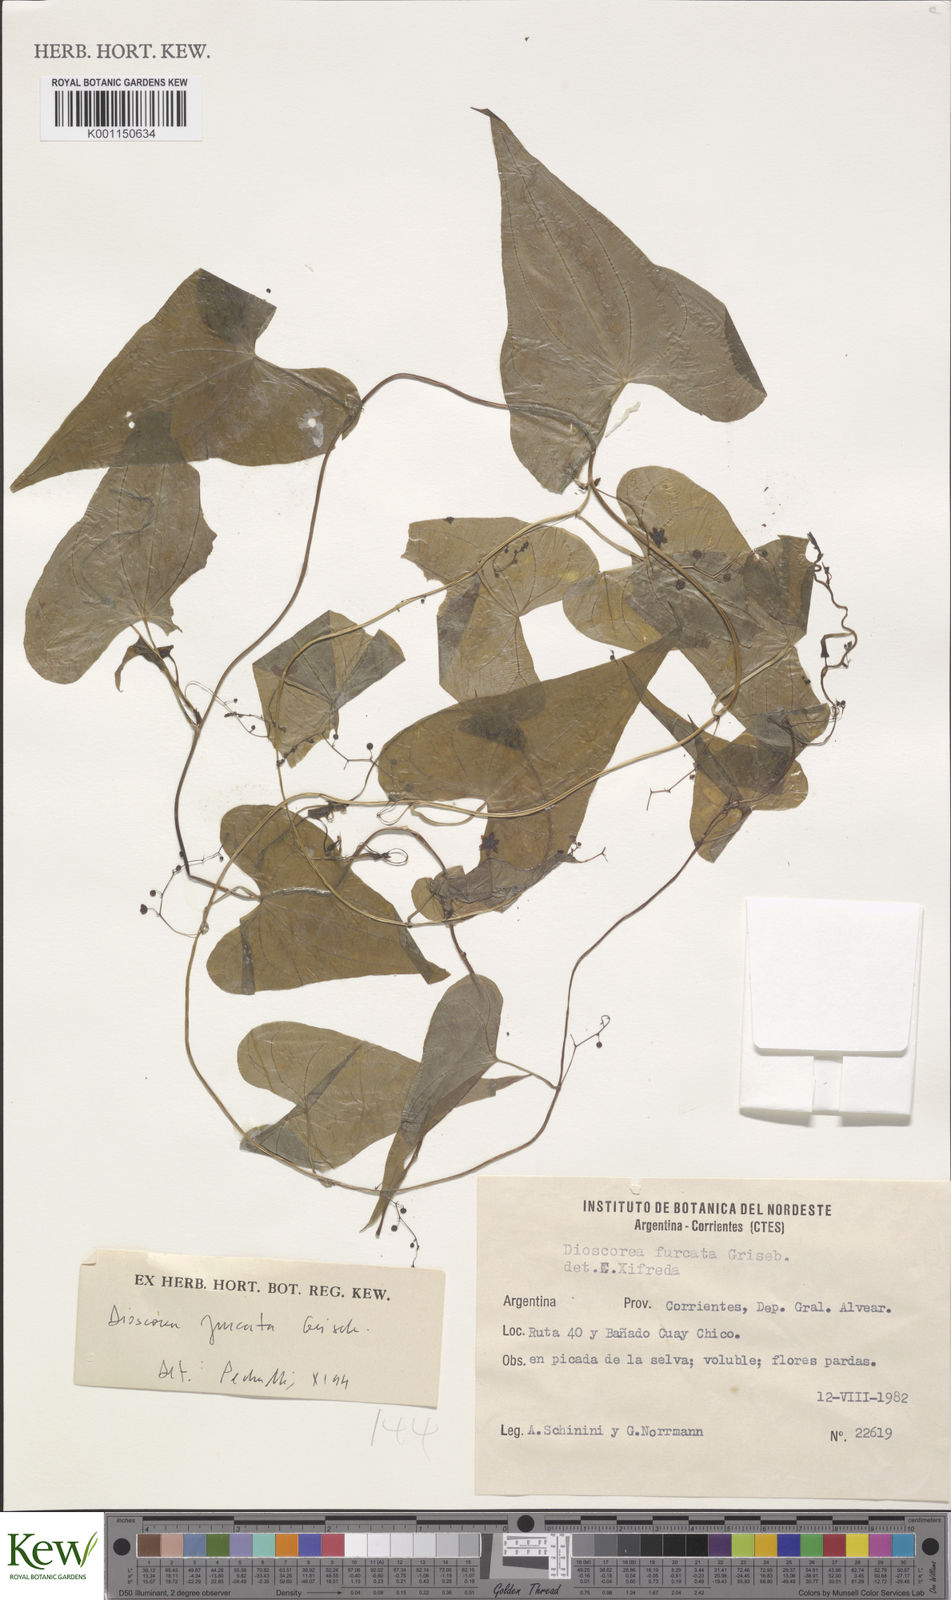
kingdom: Plantae
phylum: Tracheophyta
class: Liliopsida
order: Dioscoreales
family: Dioscoreaceae
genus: Dioscorea
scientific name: Dioscorea furcata
